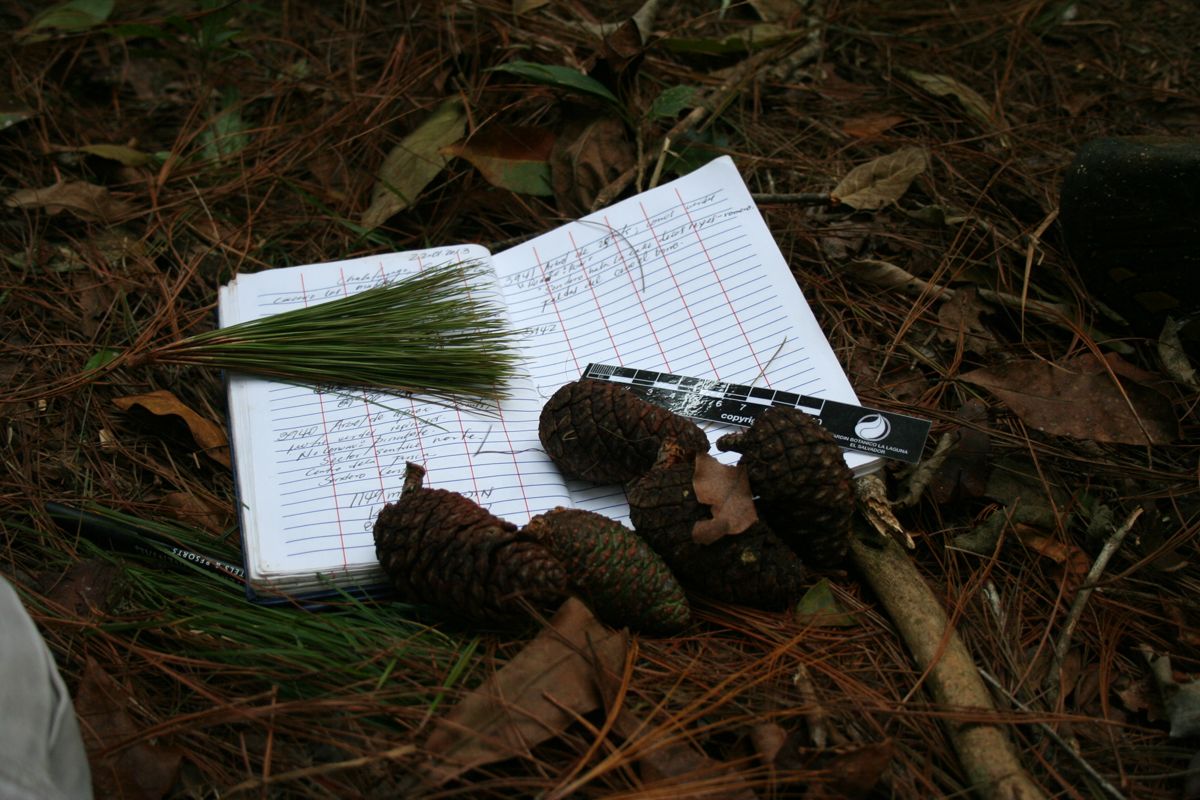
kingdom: Plantae
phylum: Tracheophyta
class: Pinopsida
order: Pinales
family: Pinaceae
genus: Pinus
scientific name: Pinus tecunumanii
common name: Schwerdtfeger's pine
